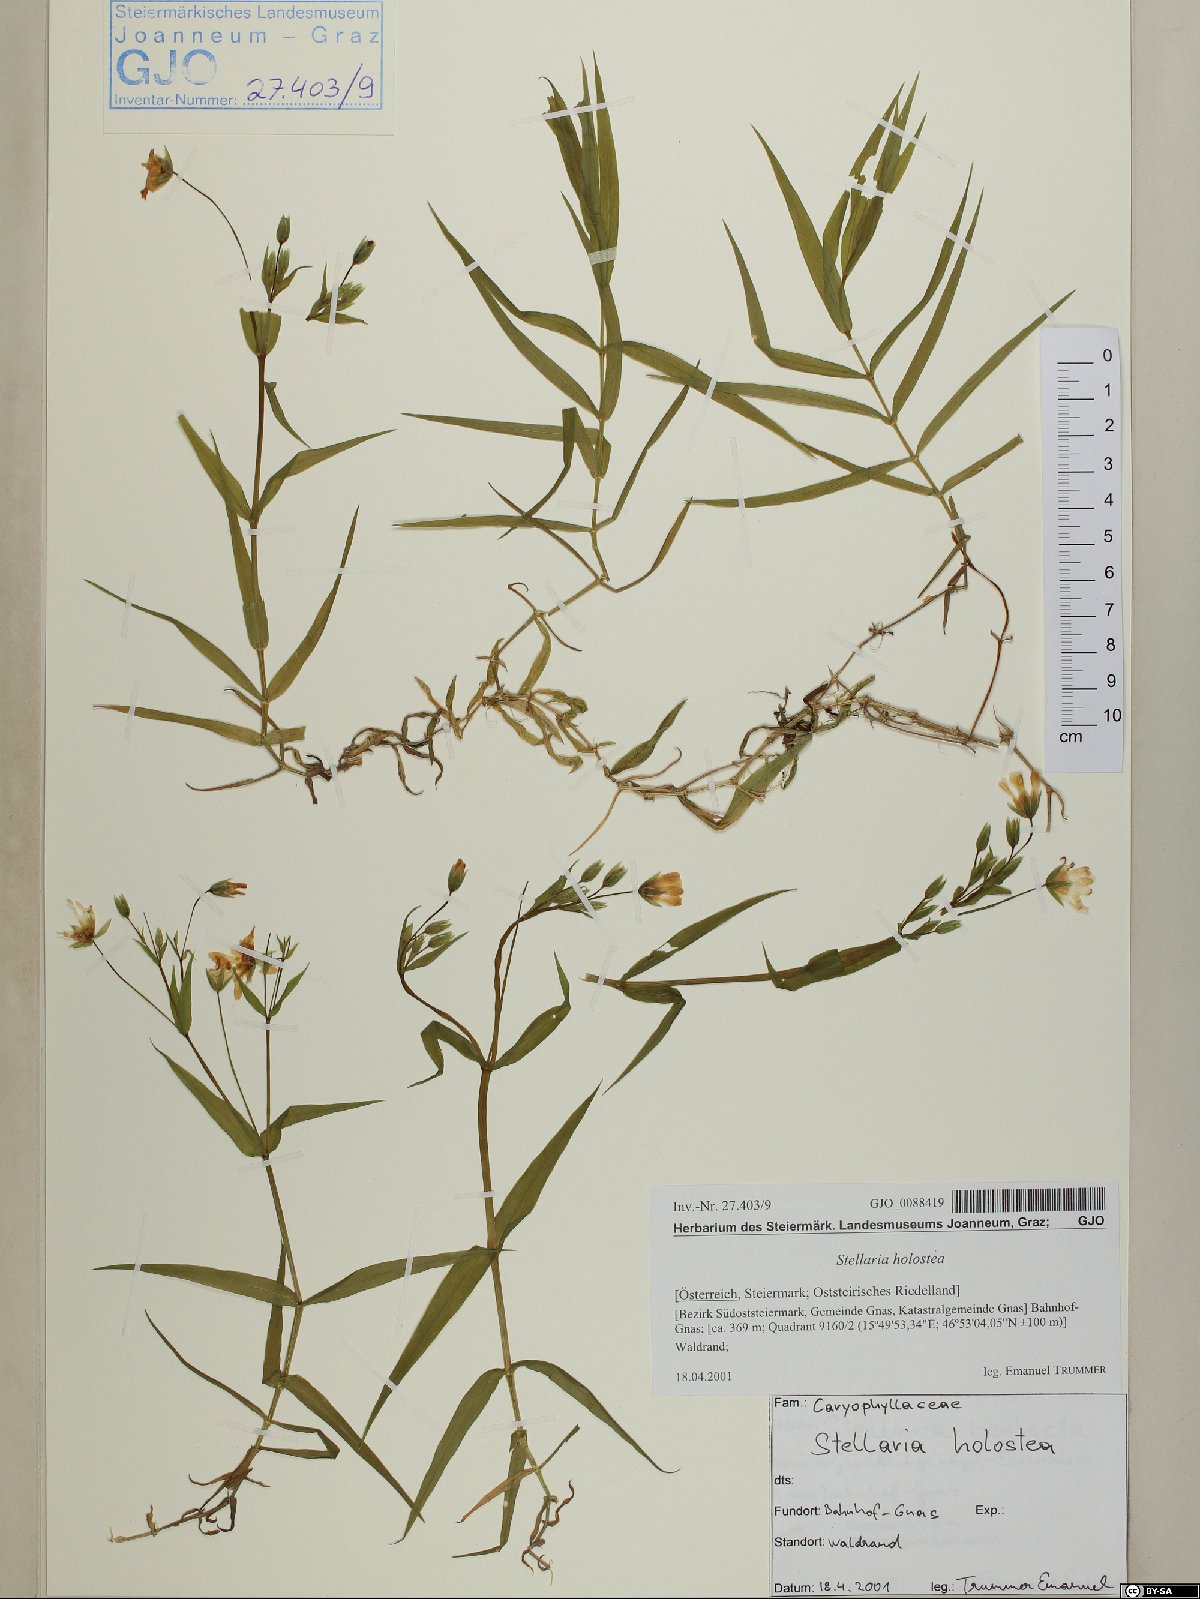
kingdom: Plantae
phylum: Tracheophyta
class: Magnoliopsida
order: Caryophyllales
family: Caryophyllaceae
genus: Rabelera
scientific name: Rabelera holostea
